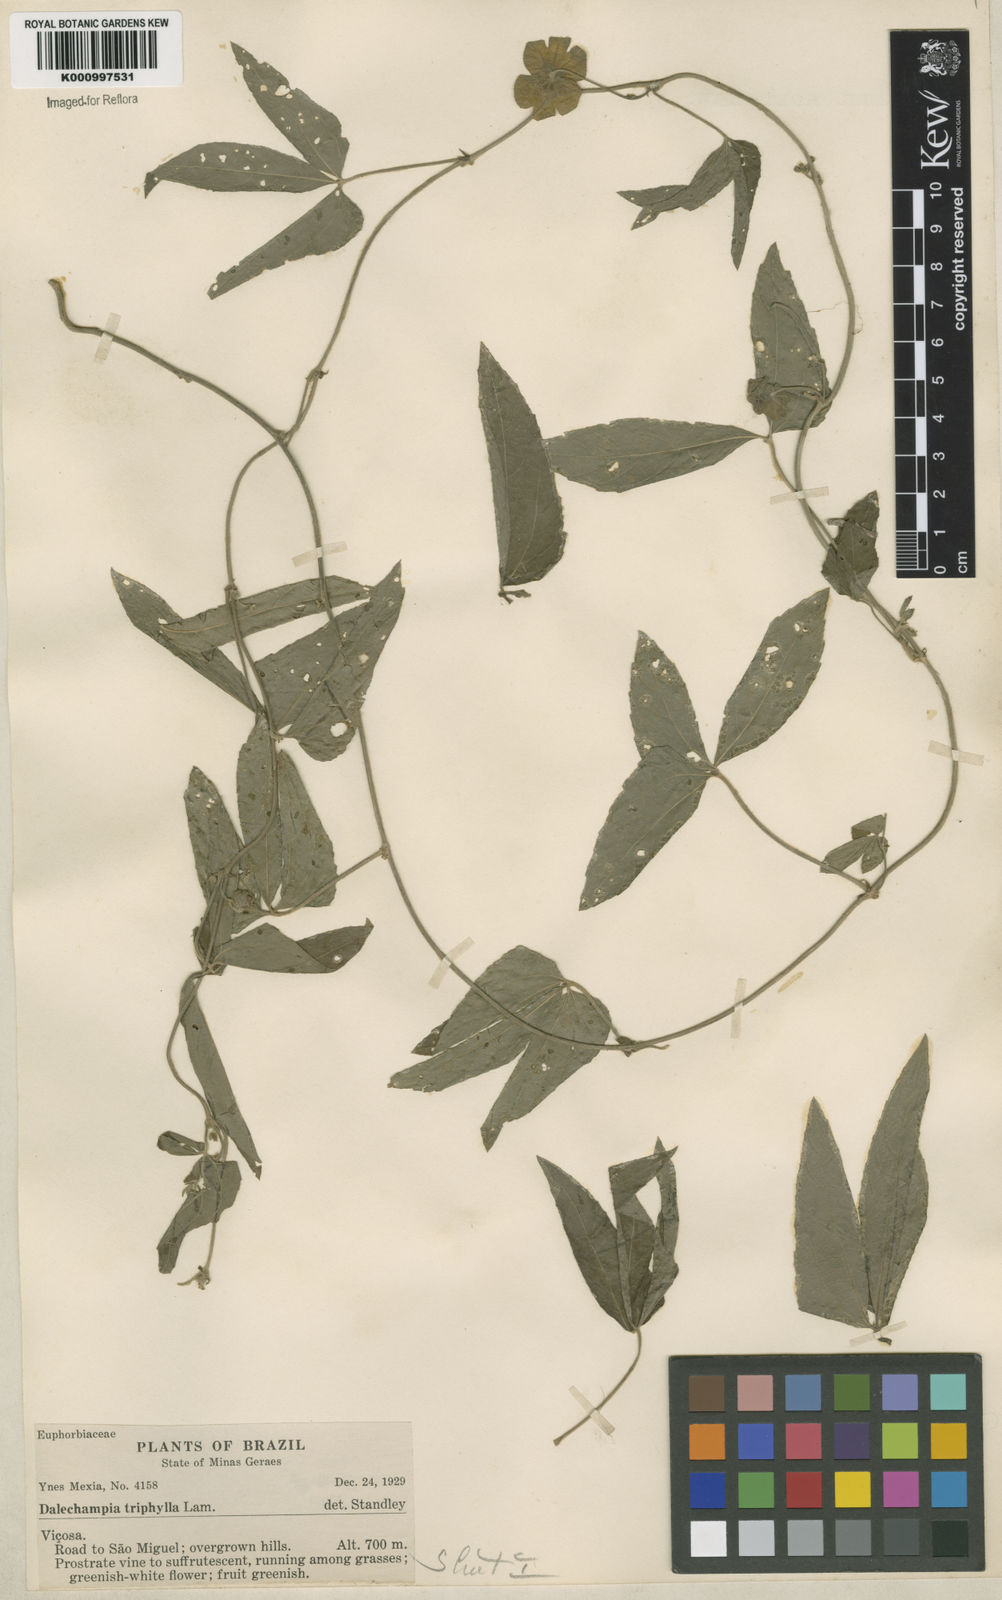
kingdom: Plantae
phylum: Tracheophyta
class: Magnoliopsida
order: Malpighiales
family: Euphorbiaceae
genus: Dalechampia
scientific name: Dalechampia triphylla
